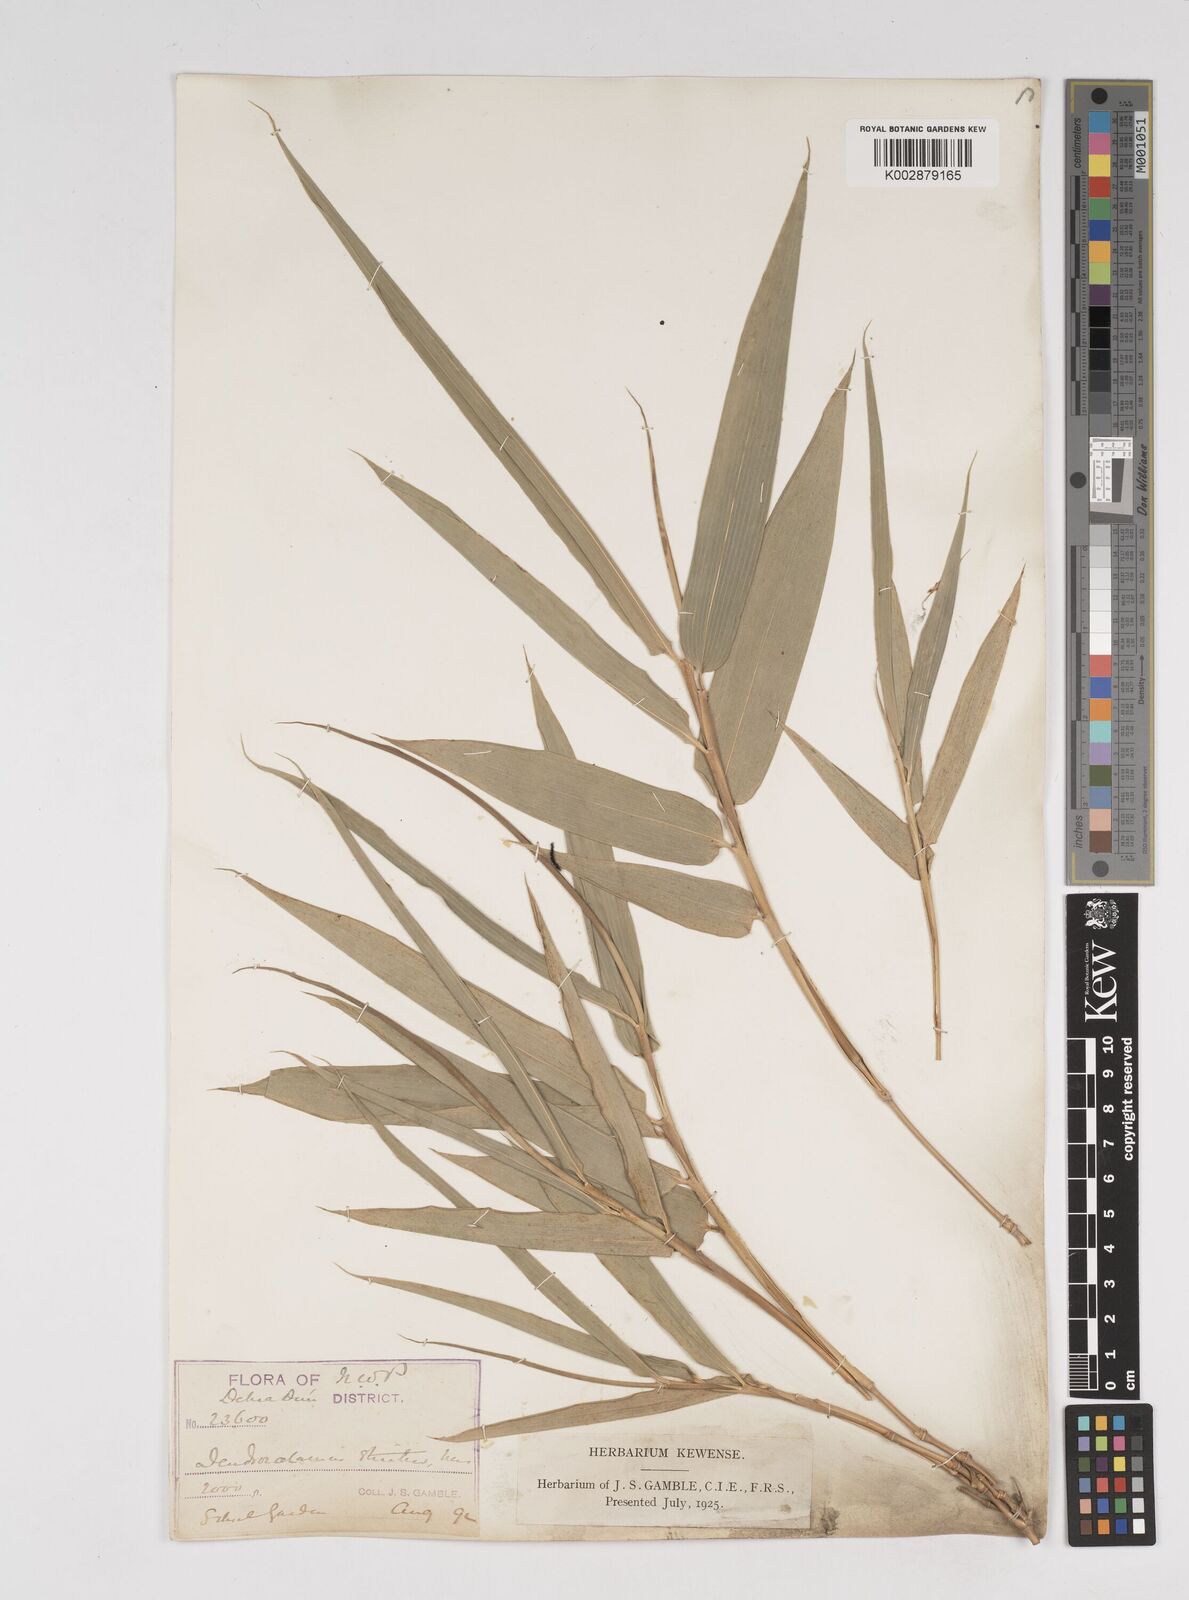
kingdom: Plantae
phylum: Tracheophyta
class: Liliopsida
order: Poales
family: Poaceae
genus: Dendrocalamus
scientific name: Dendrocalamus strictus
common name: Male bamboo
